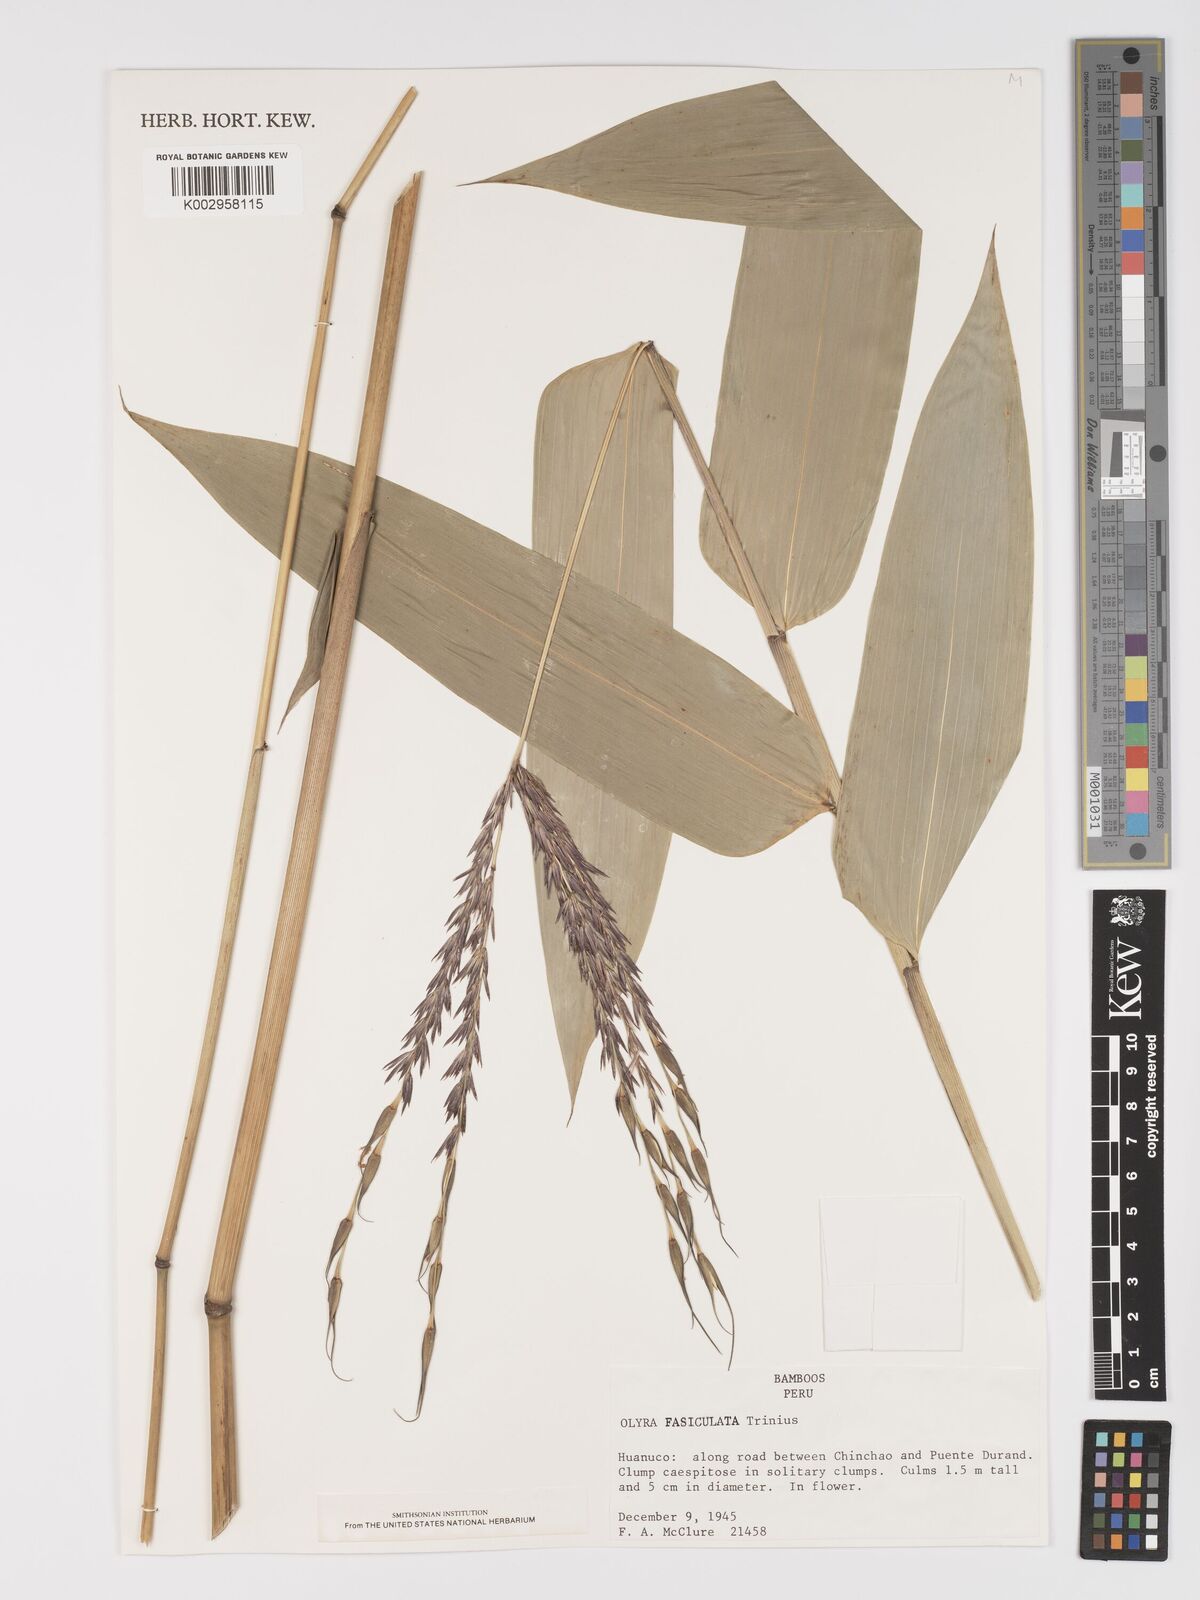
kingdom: Plantae
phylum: Tracheophyta
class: Liliopsida
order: Poales
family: Poaceae
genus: Olyra
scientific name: Olyra fasciculata
